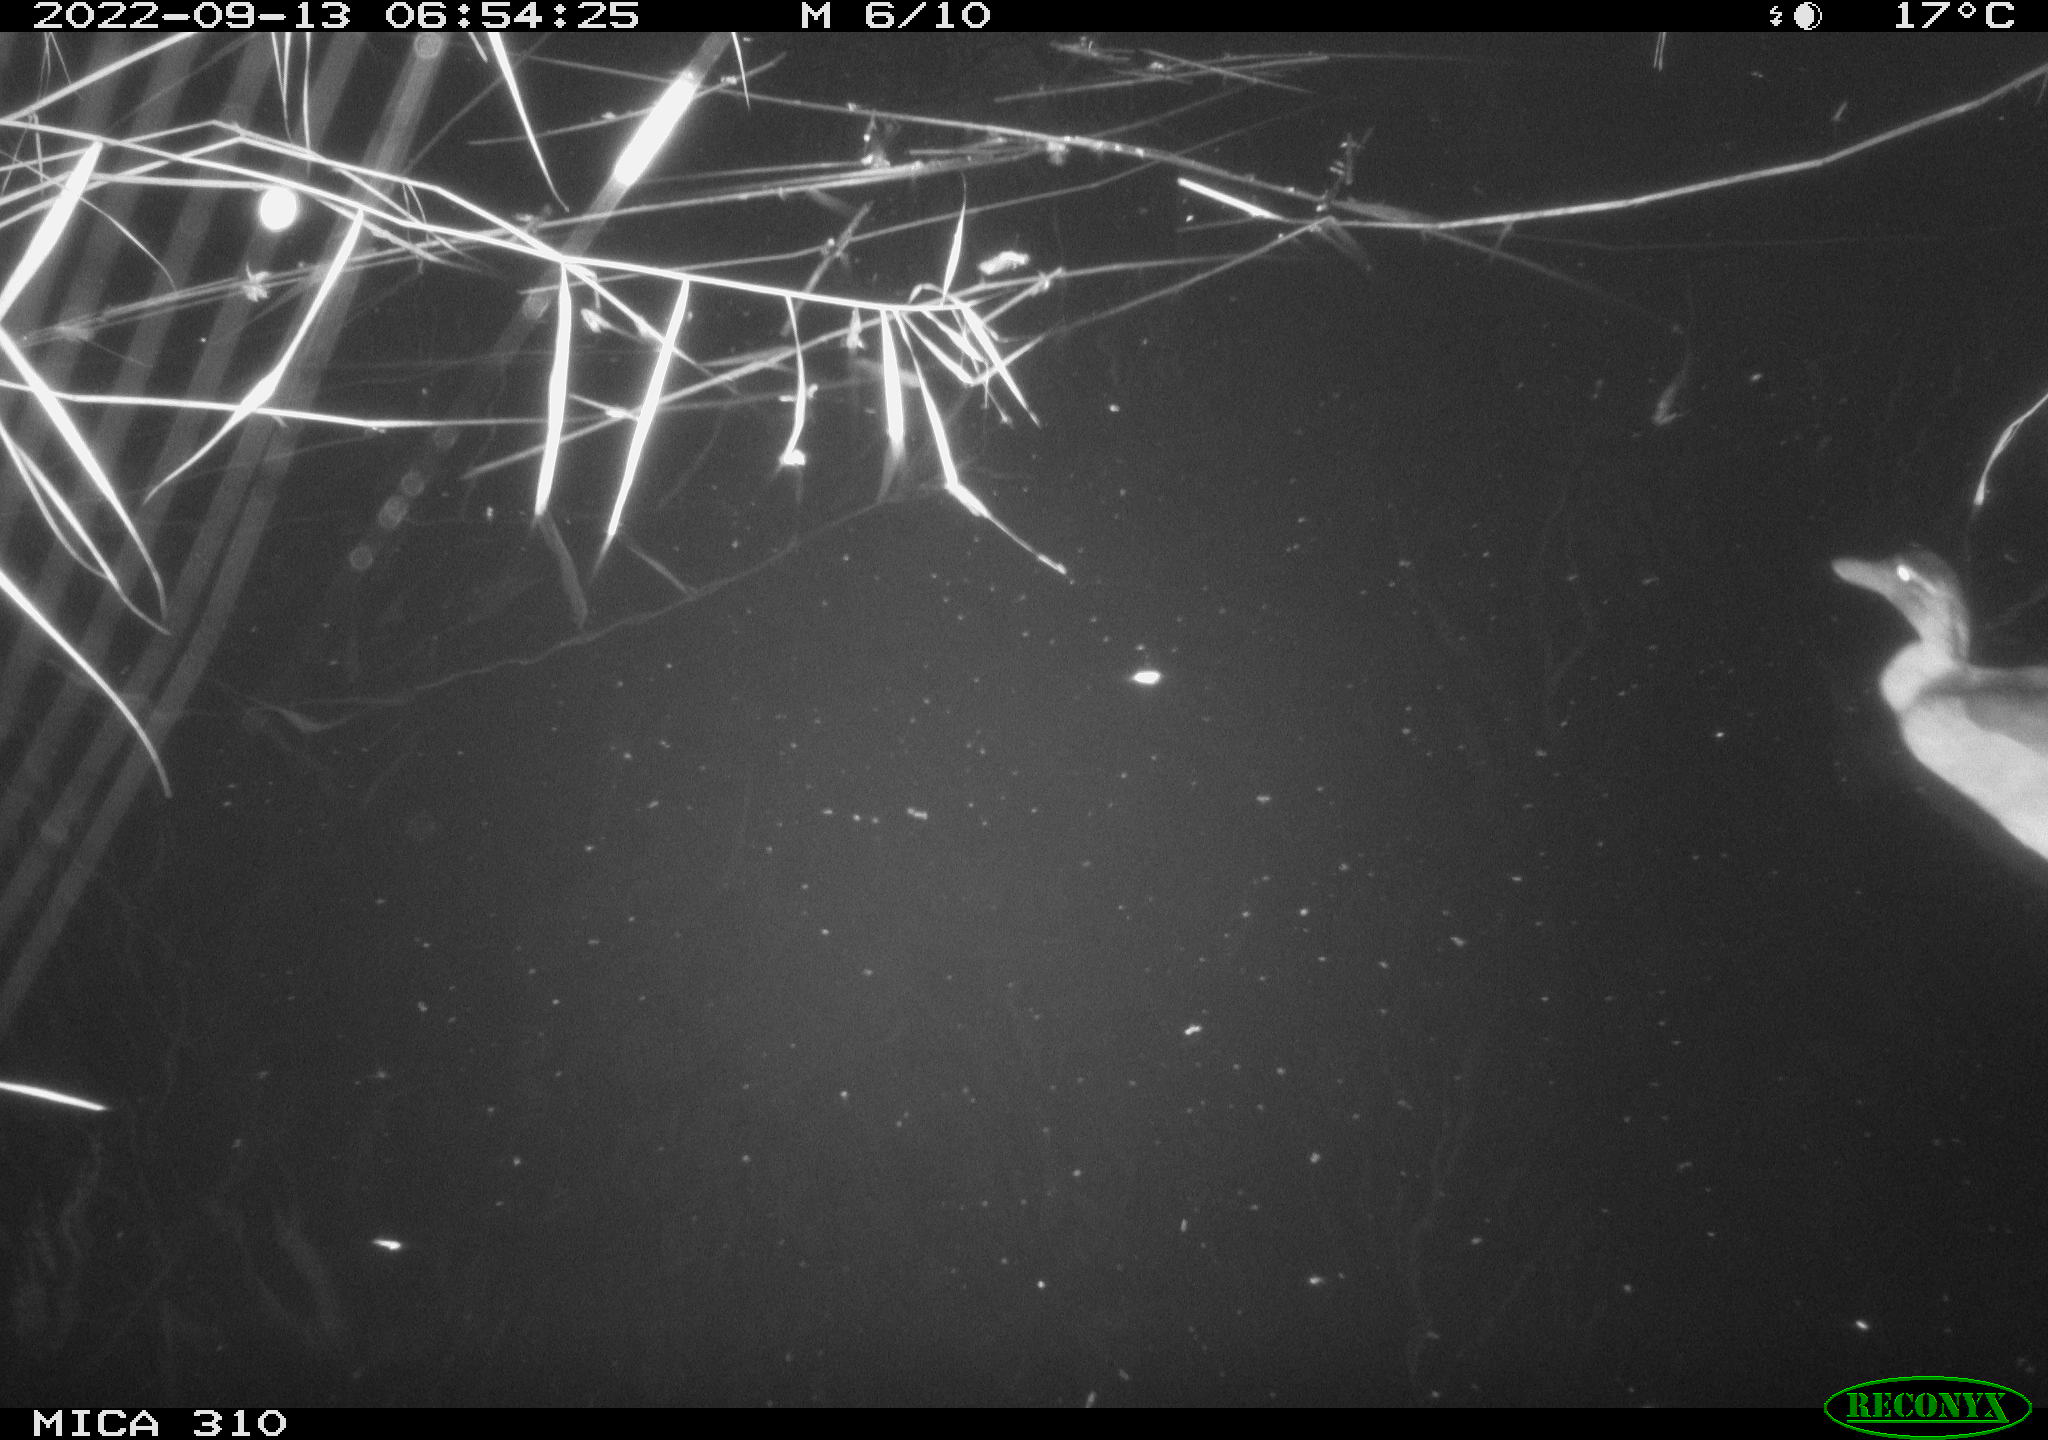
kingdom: Animalia
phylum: Chordata
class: Aves
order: Gruiformes
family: Rallidae
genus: Fulica
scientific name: Fulica atra
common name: Eurasian coot
